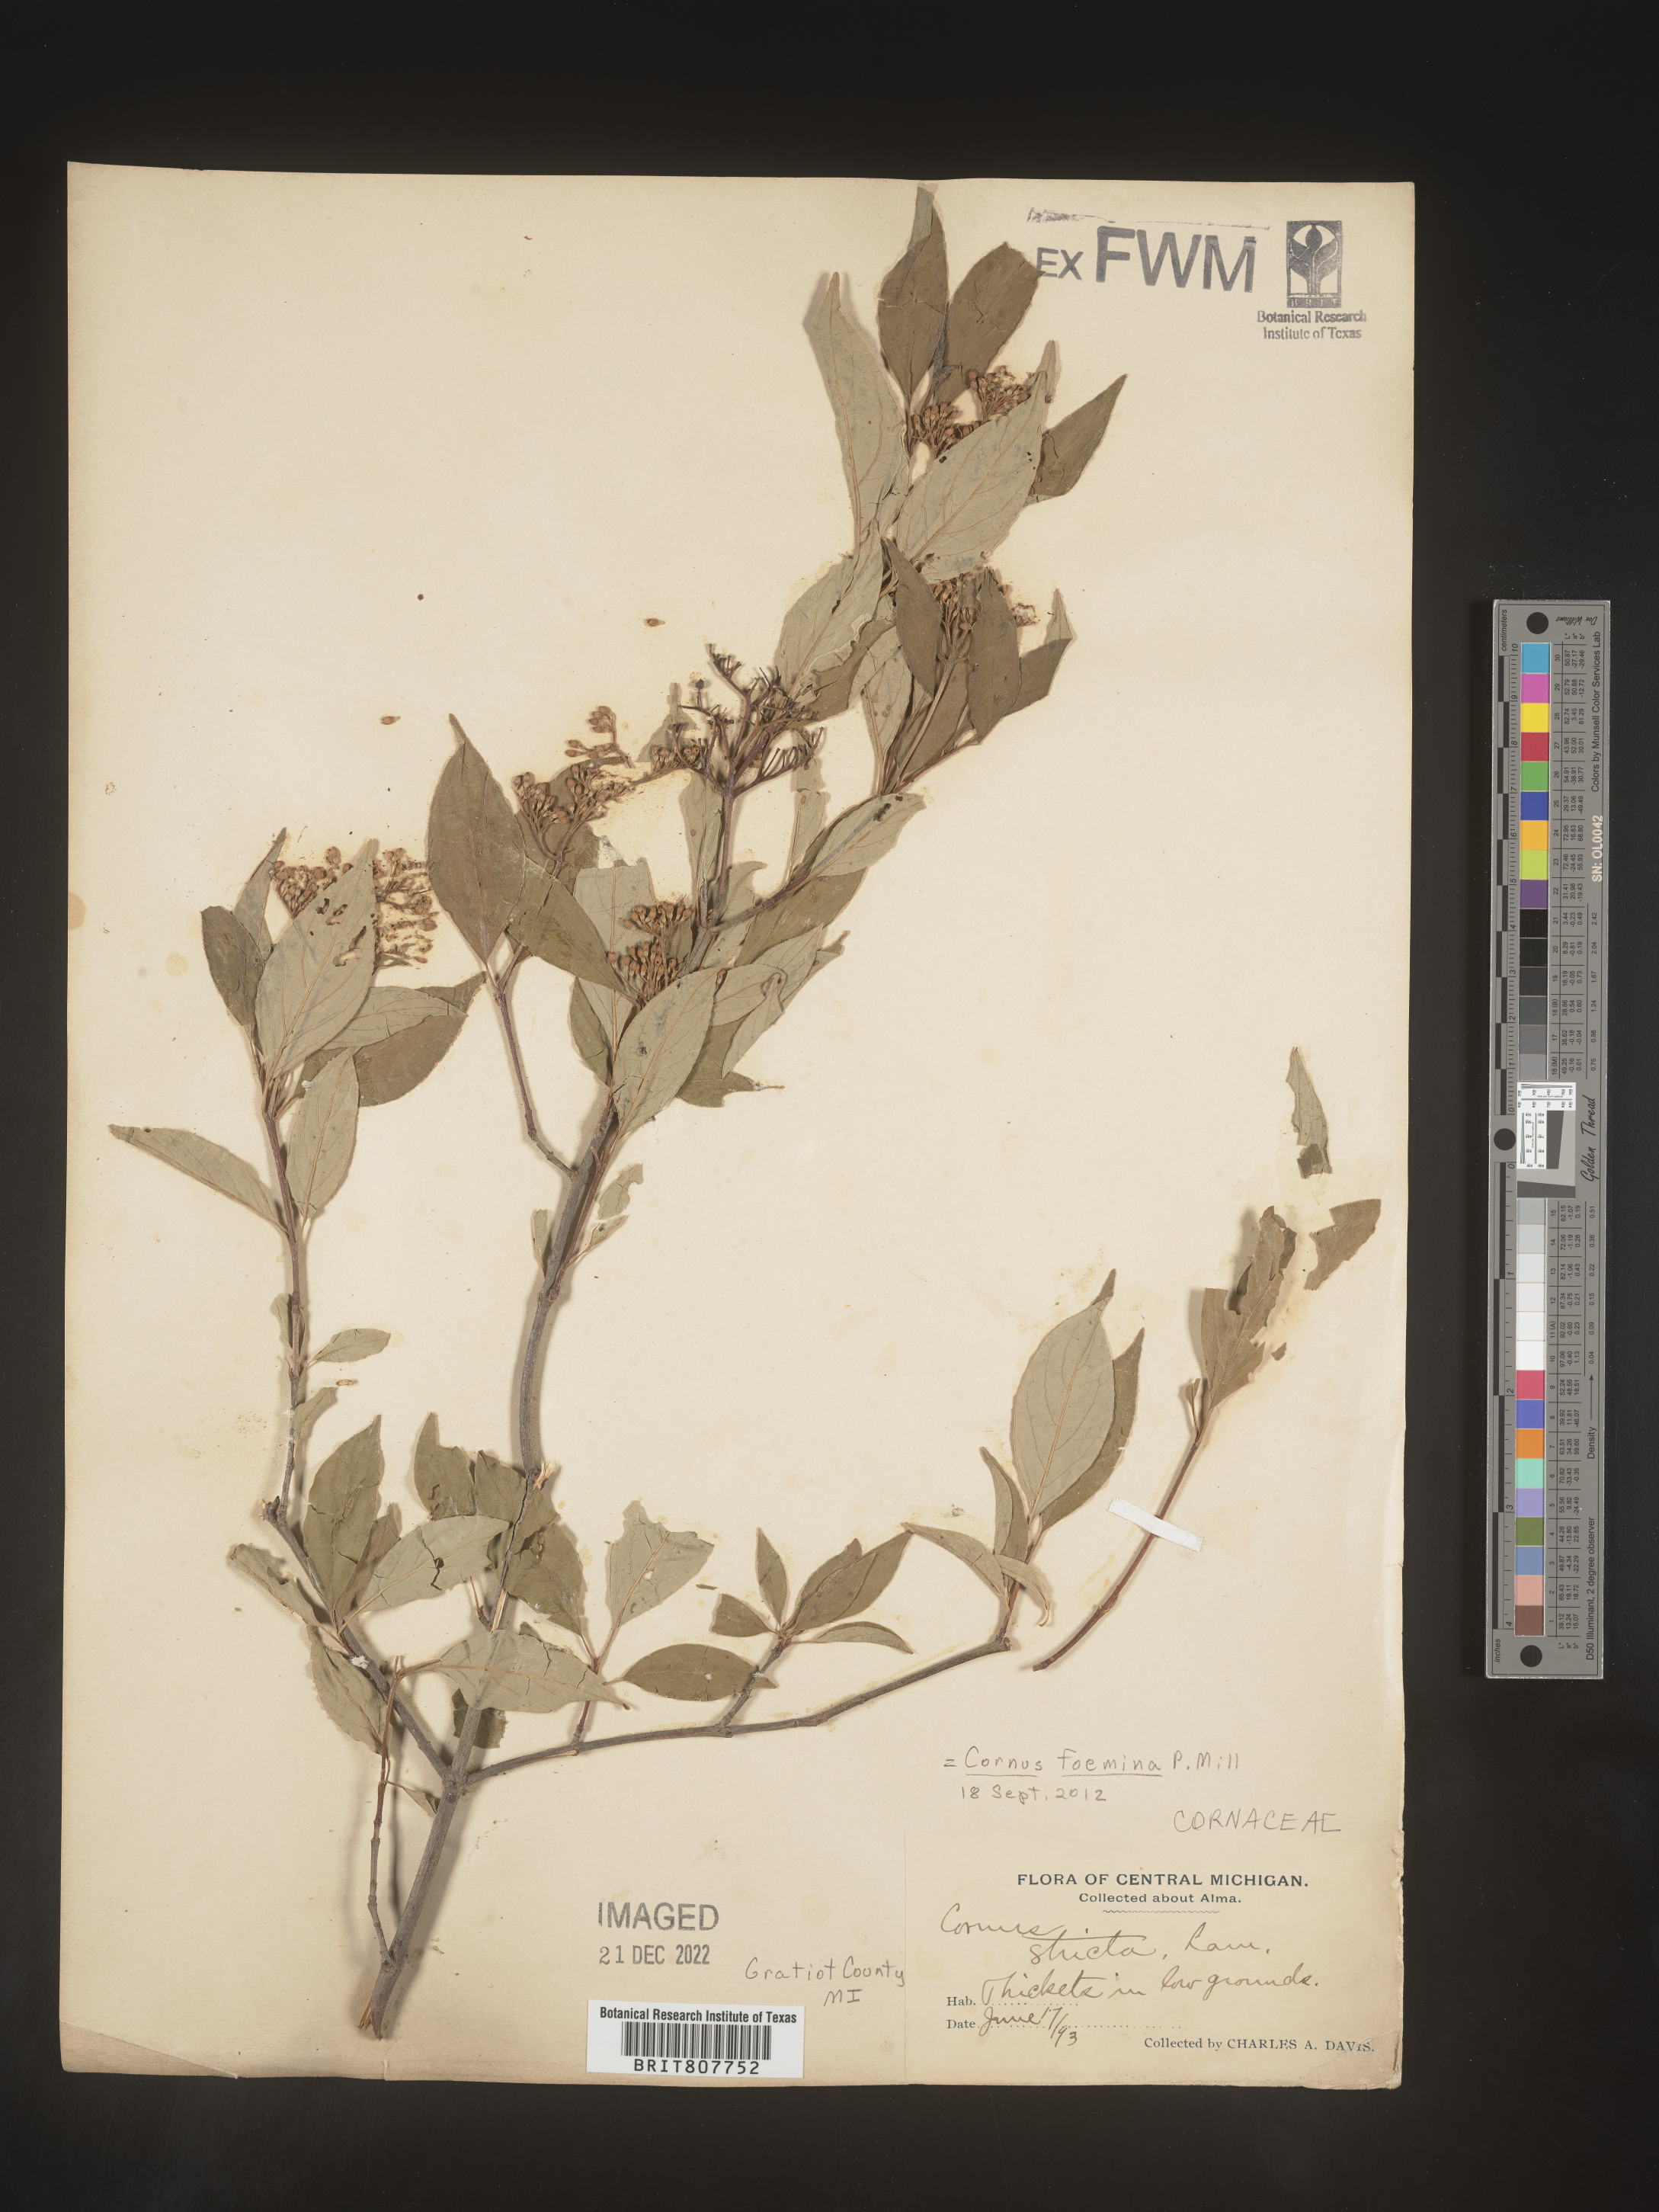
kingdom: Plantae
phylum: Tracheophyta
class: Magnoliopsida
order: Cornales
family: Cornaceae
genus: Cornus
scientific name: Cornus foemina
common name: Swamp dogwood
